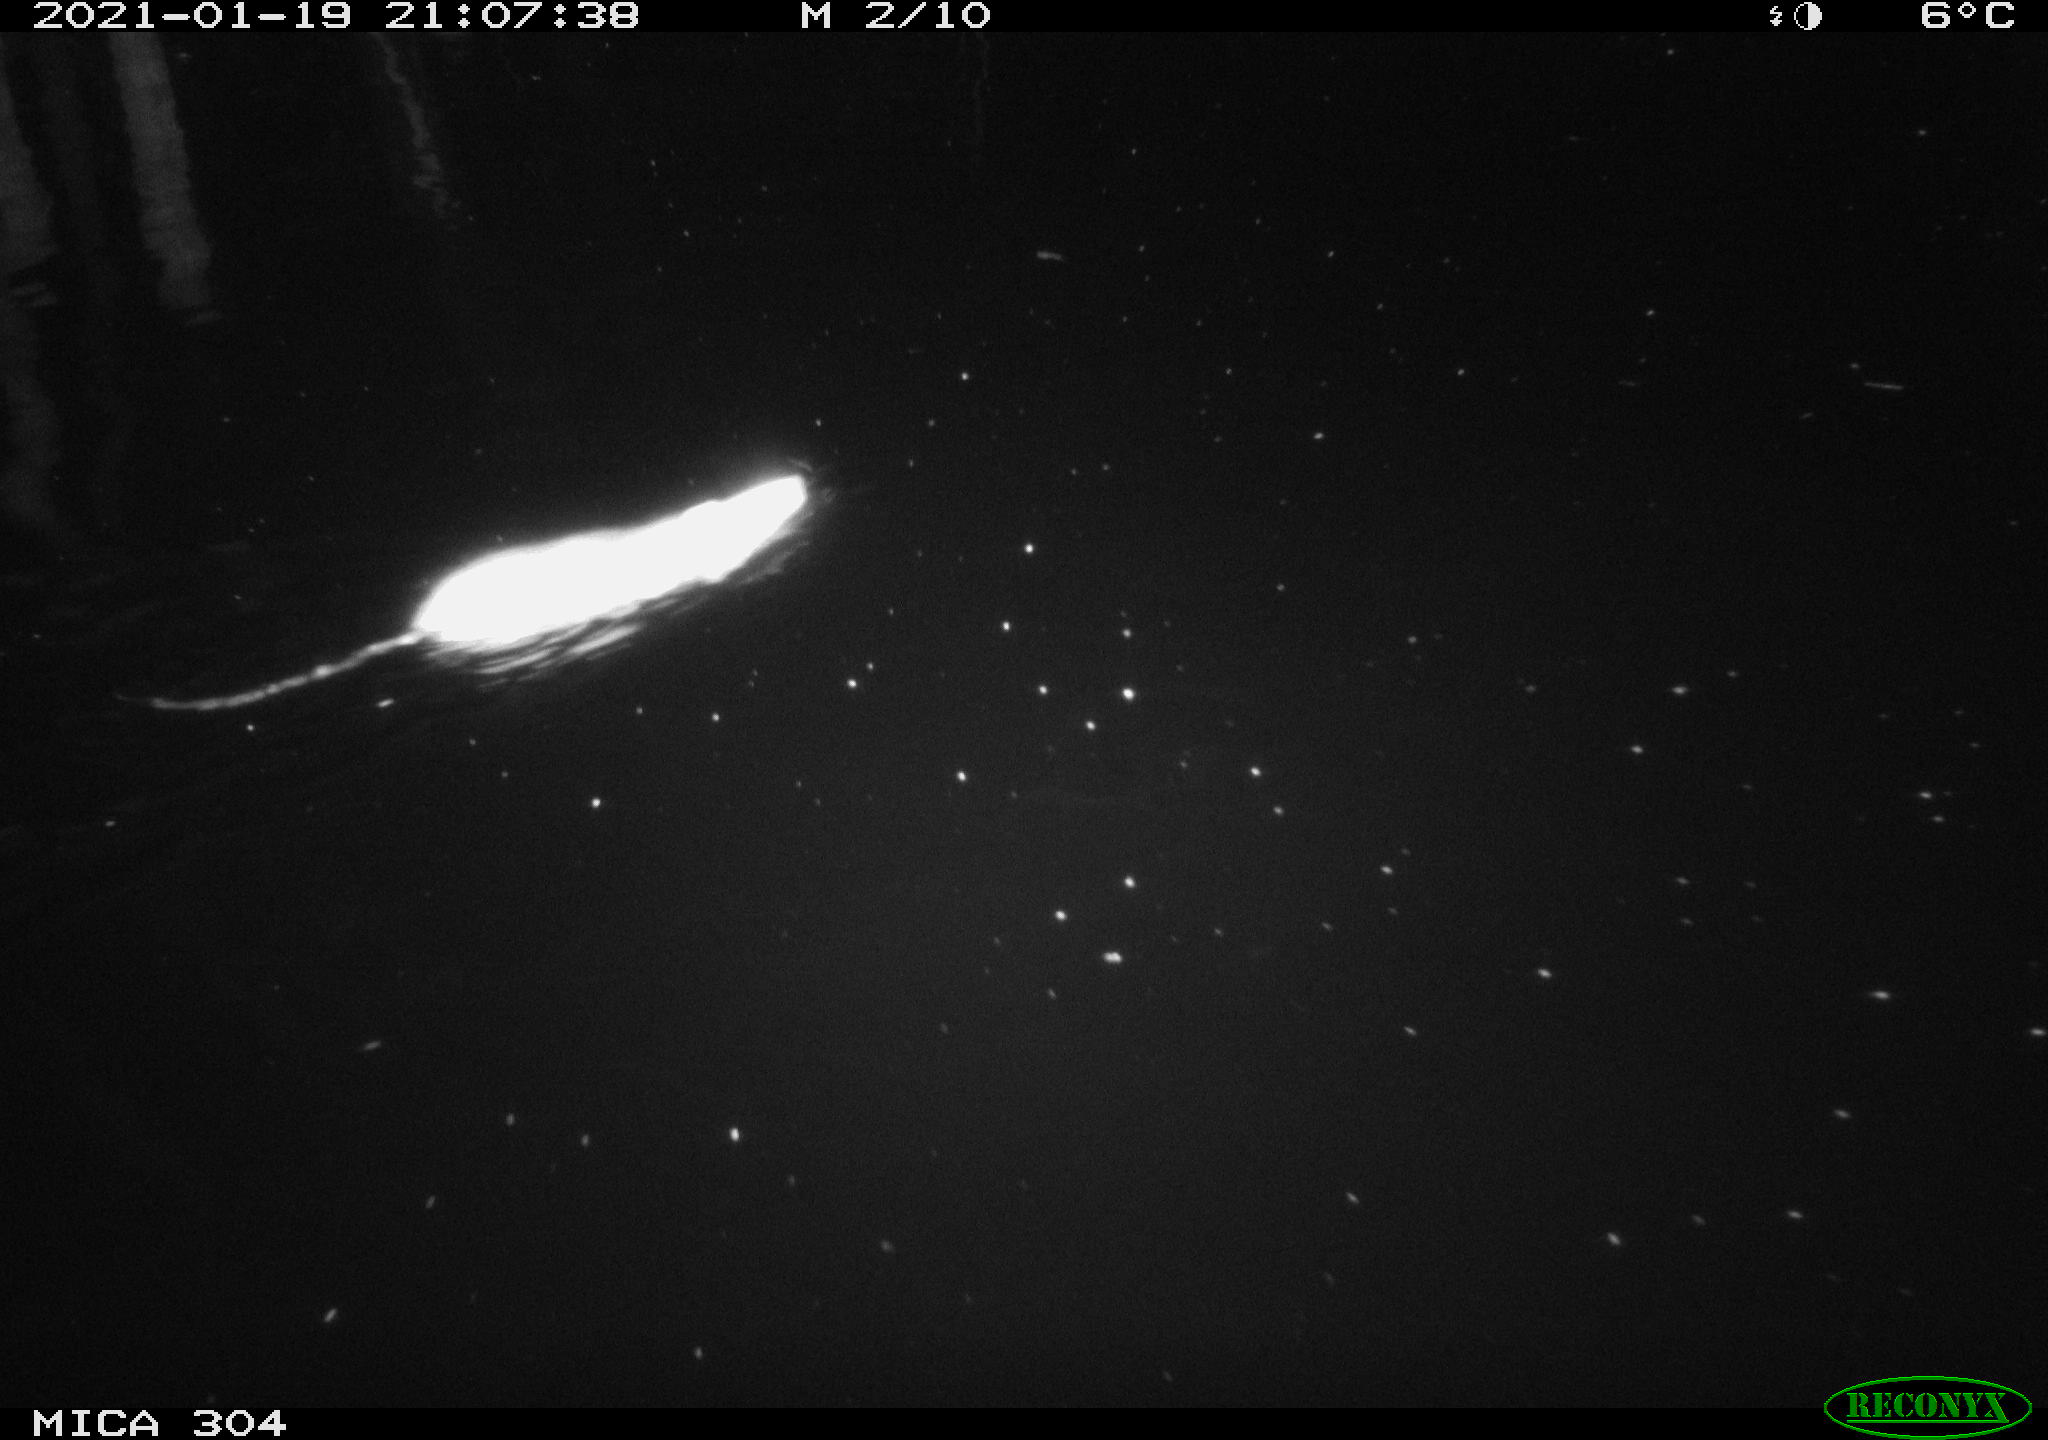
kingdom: Animalia
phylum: Chordata
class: Mammalia
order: Rodentia
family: Muridae
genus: Rattus
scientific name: Rattus norvegicus
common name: Brown rat
